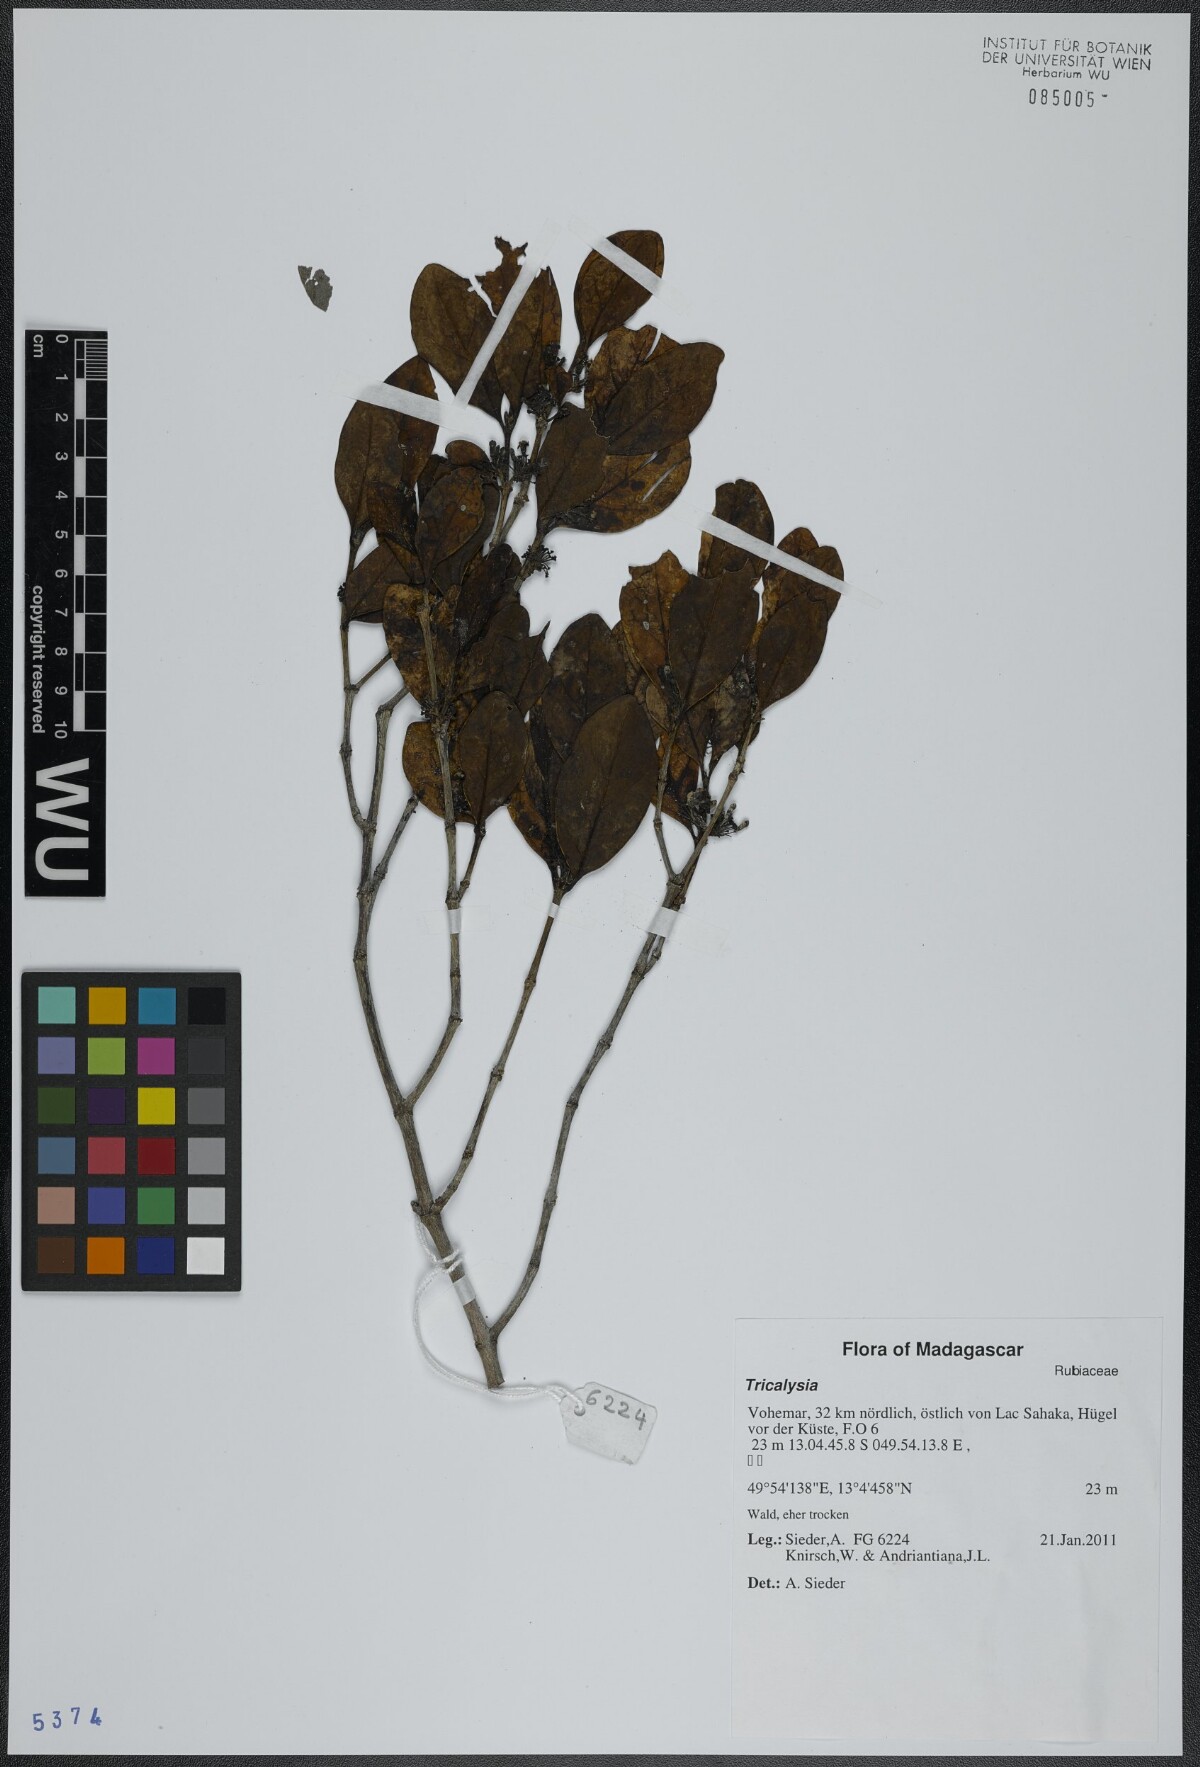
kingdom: Plantae
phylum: Tracheophyta
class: Magnoliopsida
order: Gentianales
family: Rubiaceae
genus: Tricalysia
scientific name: Tricalysia
